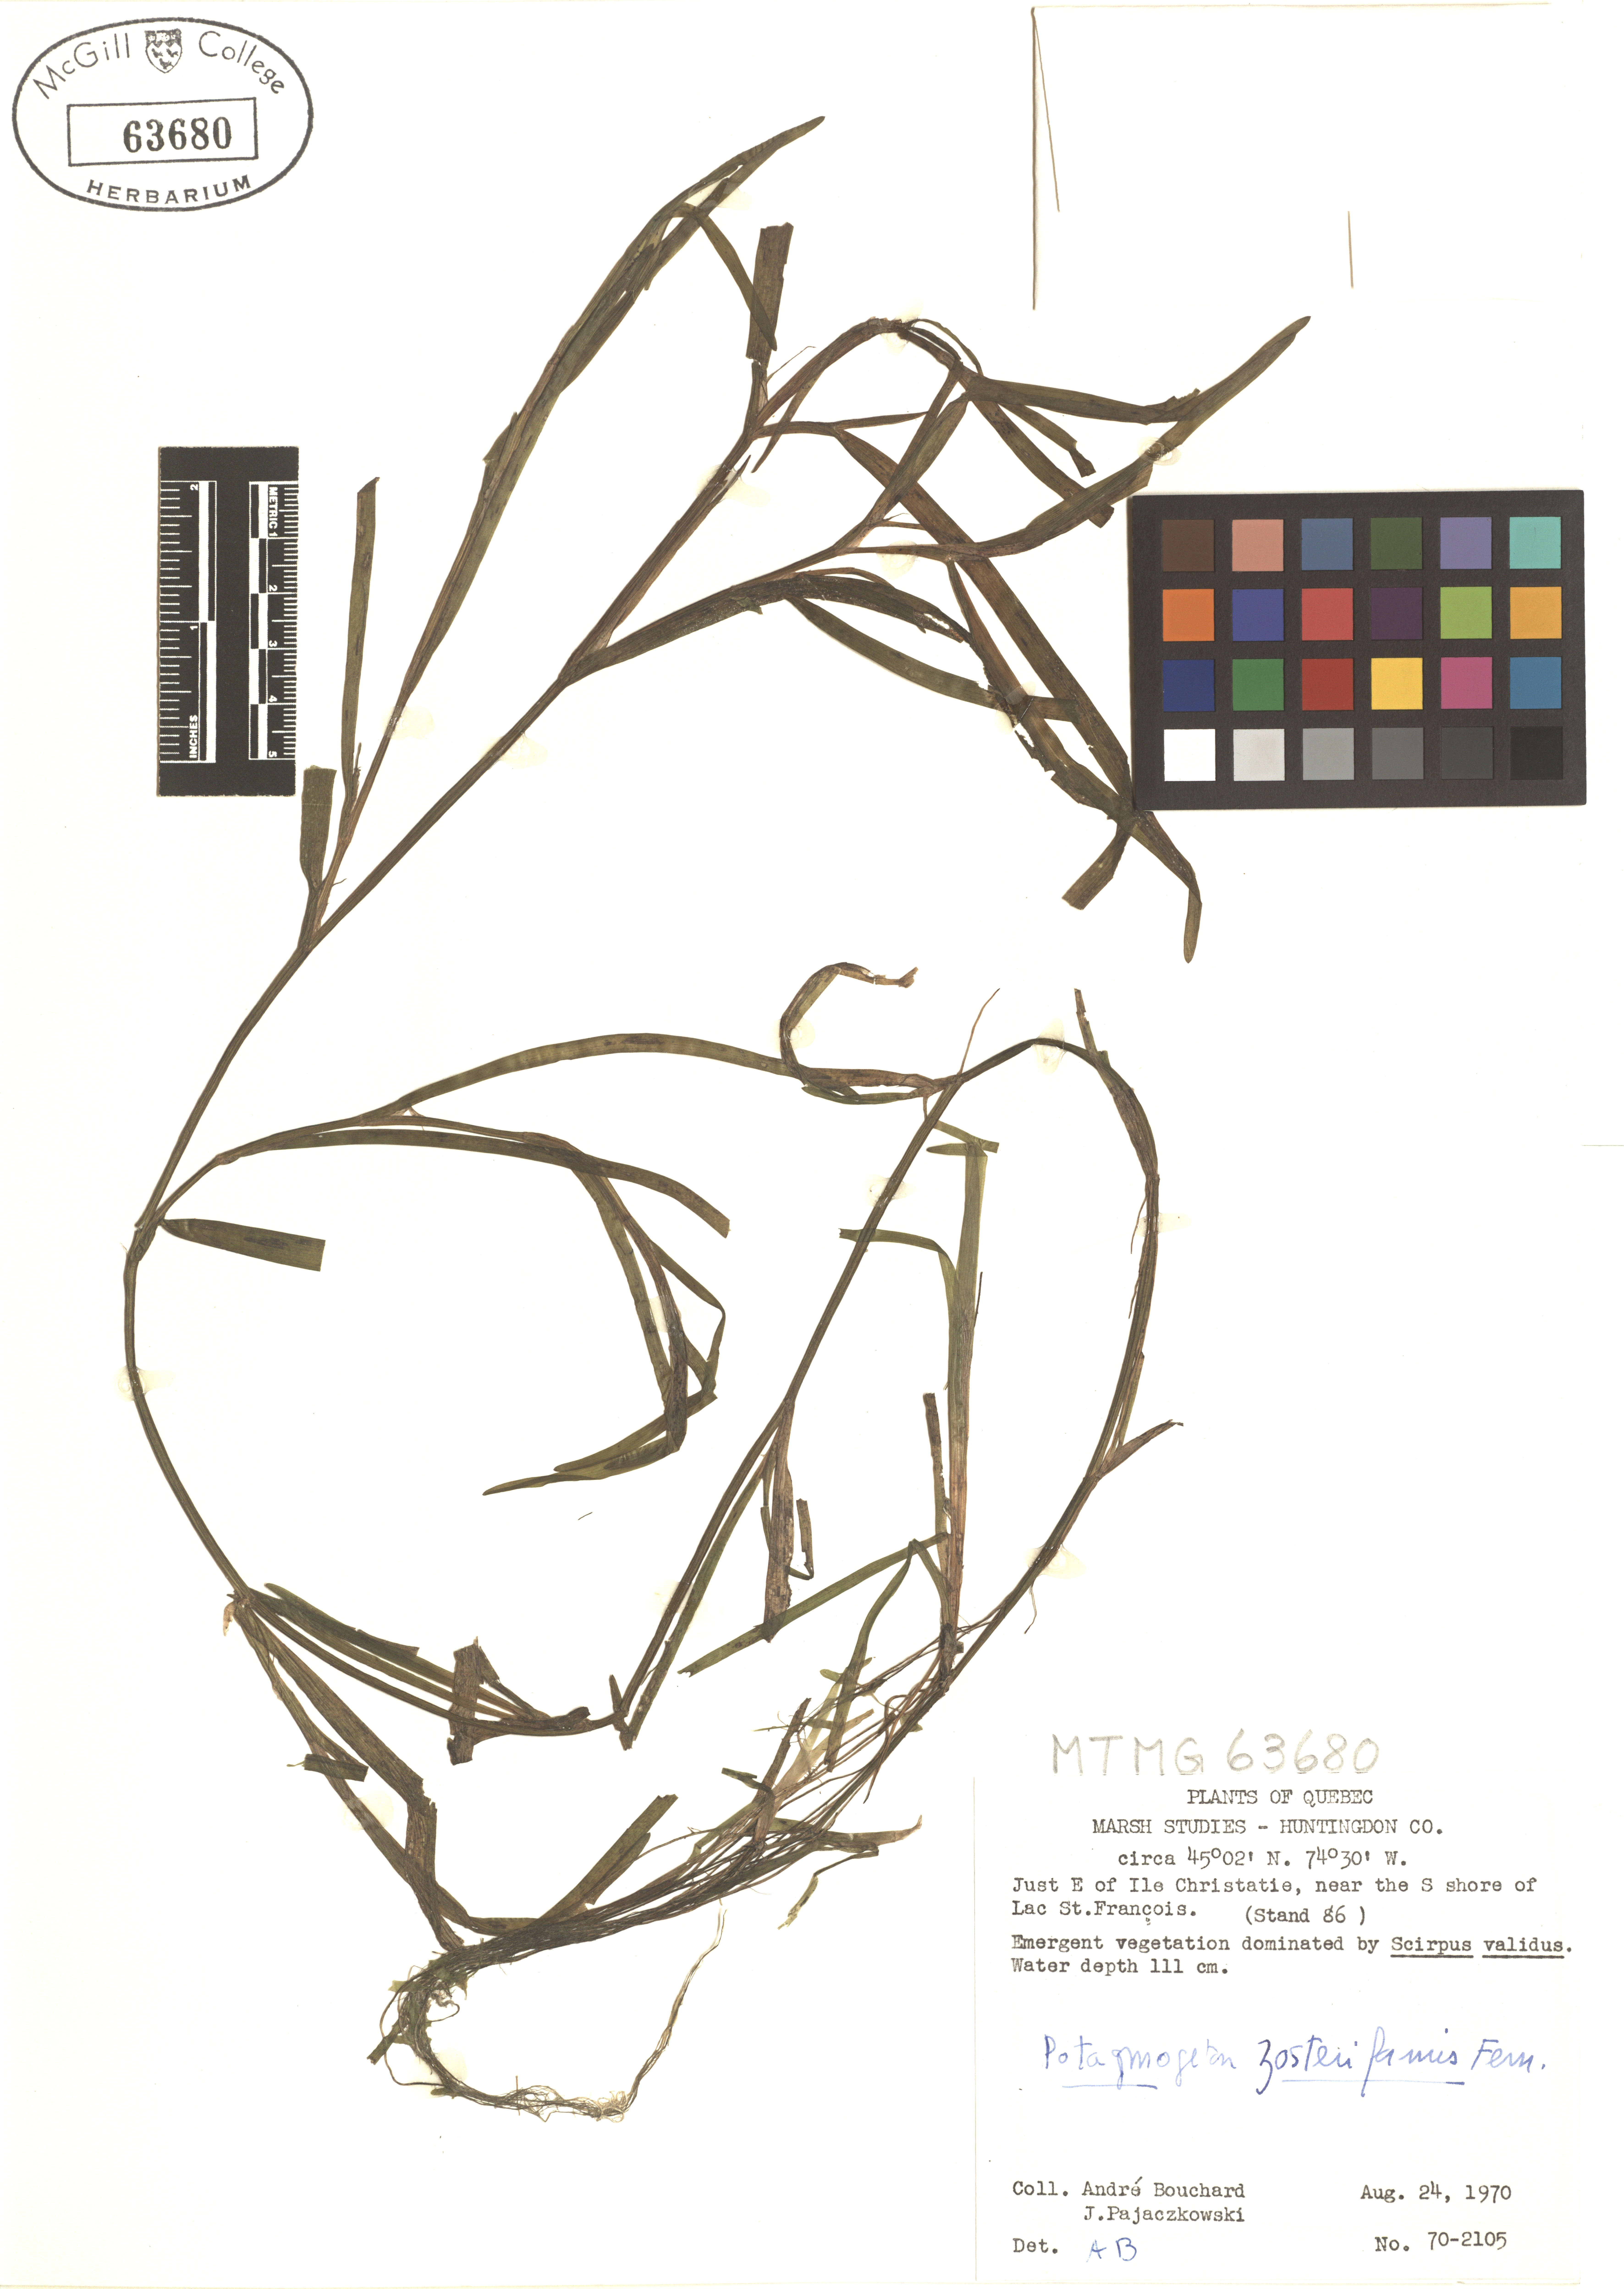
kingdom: Plantae
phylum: Tracheophyta
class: Liliopsida
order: Alismatales
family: Potamogetonaceae
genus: Potamogeton
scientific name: Potamogeton zosteriformis
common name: Eelgrass pondweed
